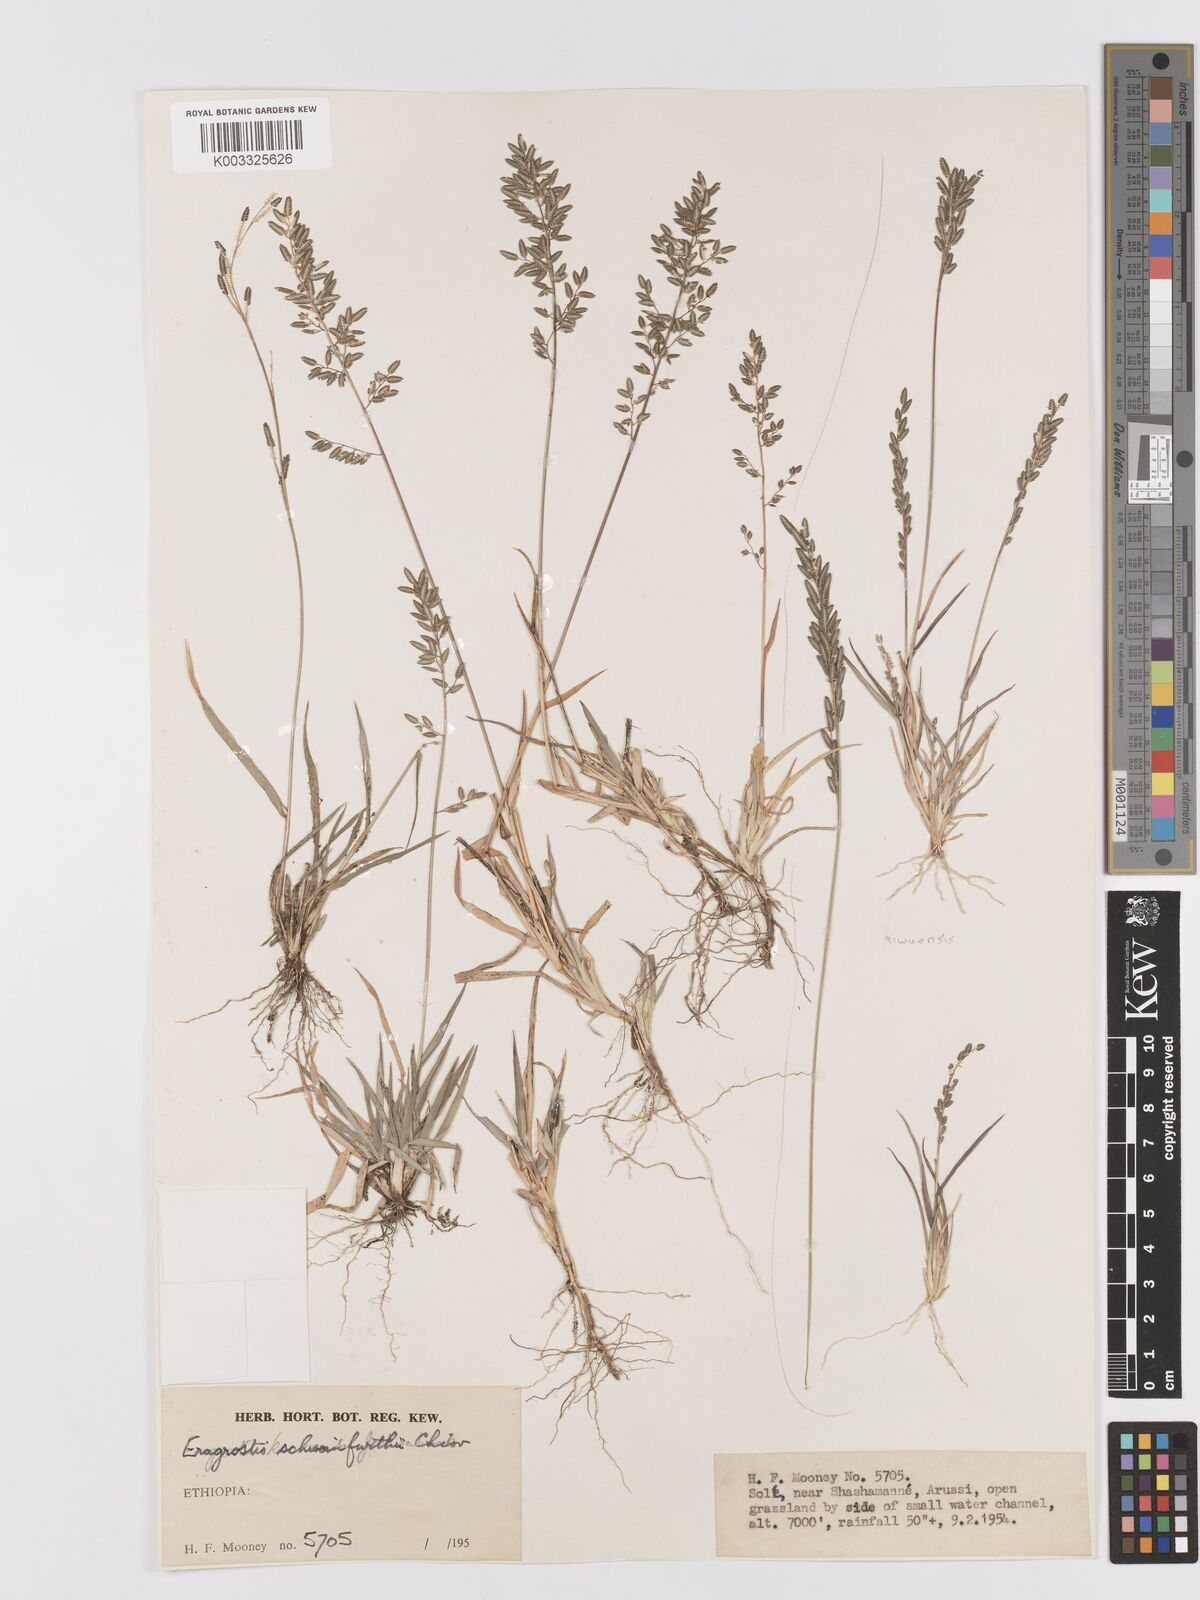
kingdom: Plantae
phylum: Tracheophyta
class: Liliopsida
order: Poales
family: Poaceae
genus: Eragrostis
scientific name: Eragrostis schweinfurthii
